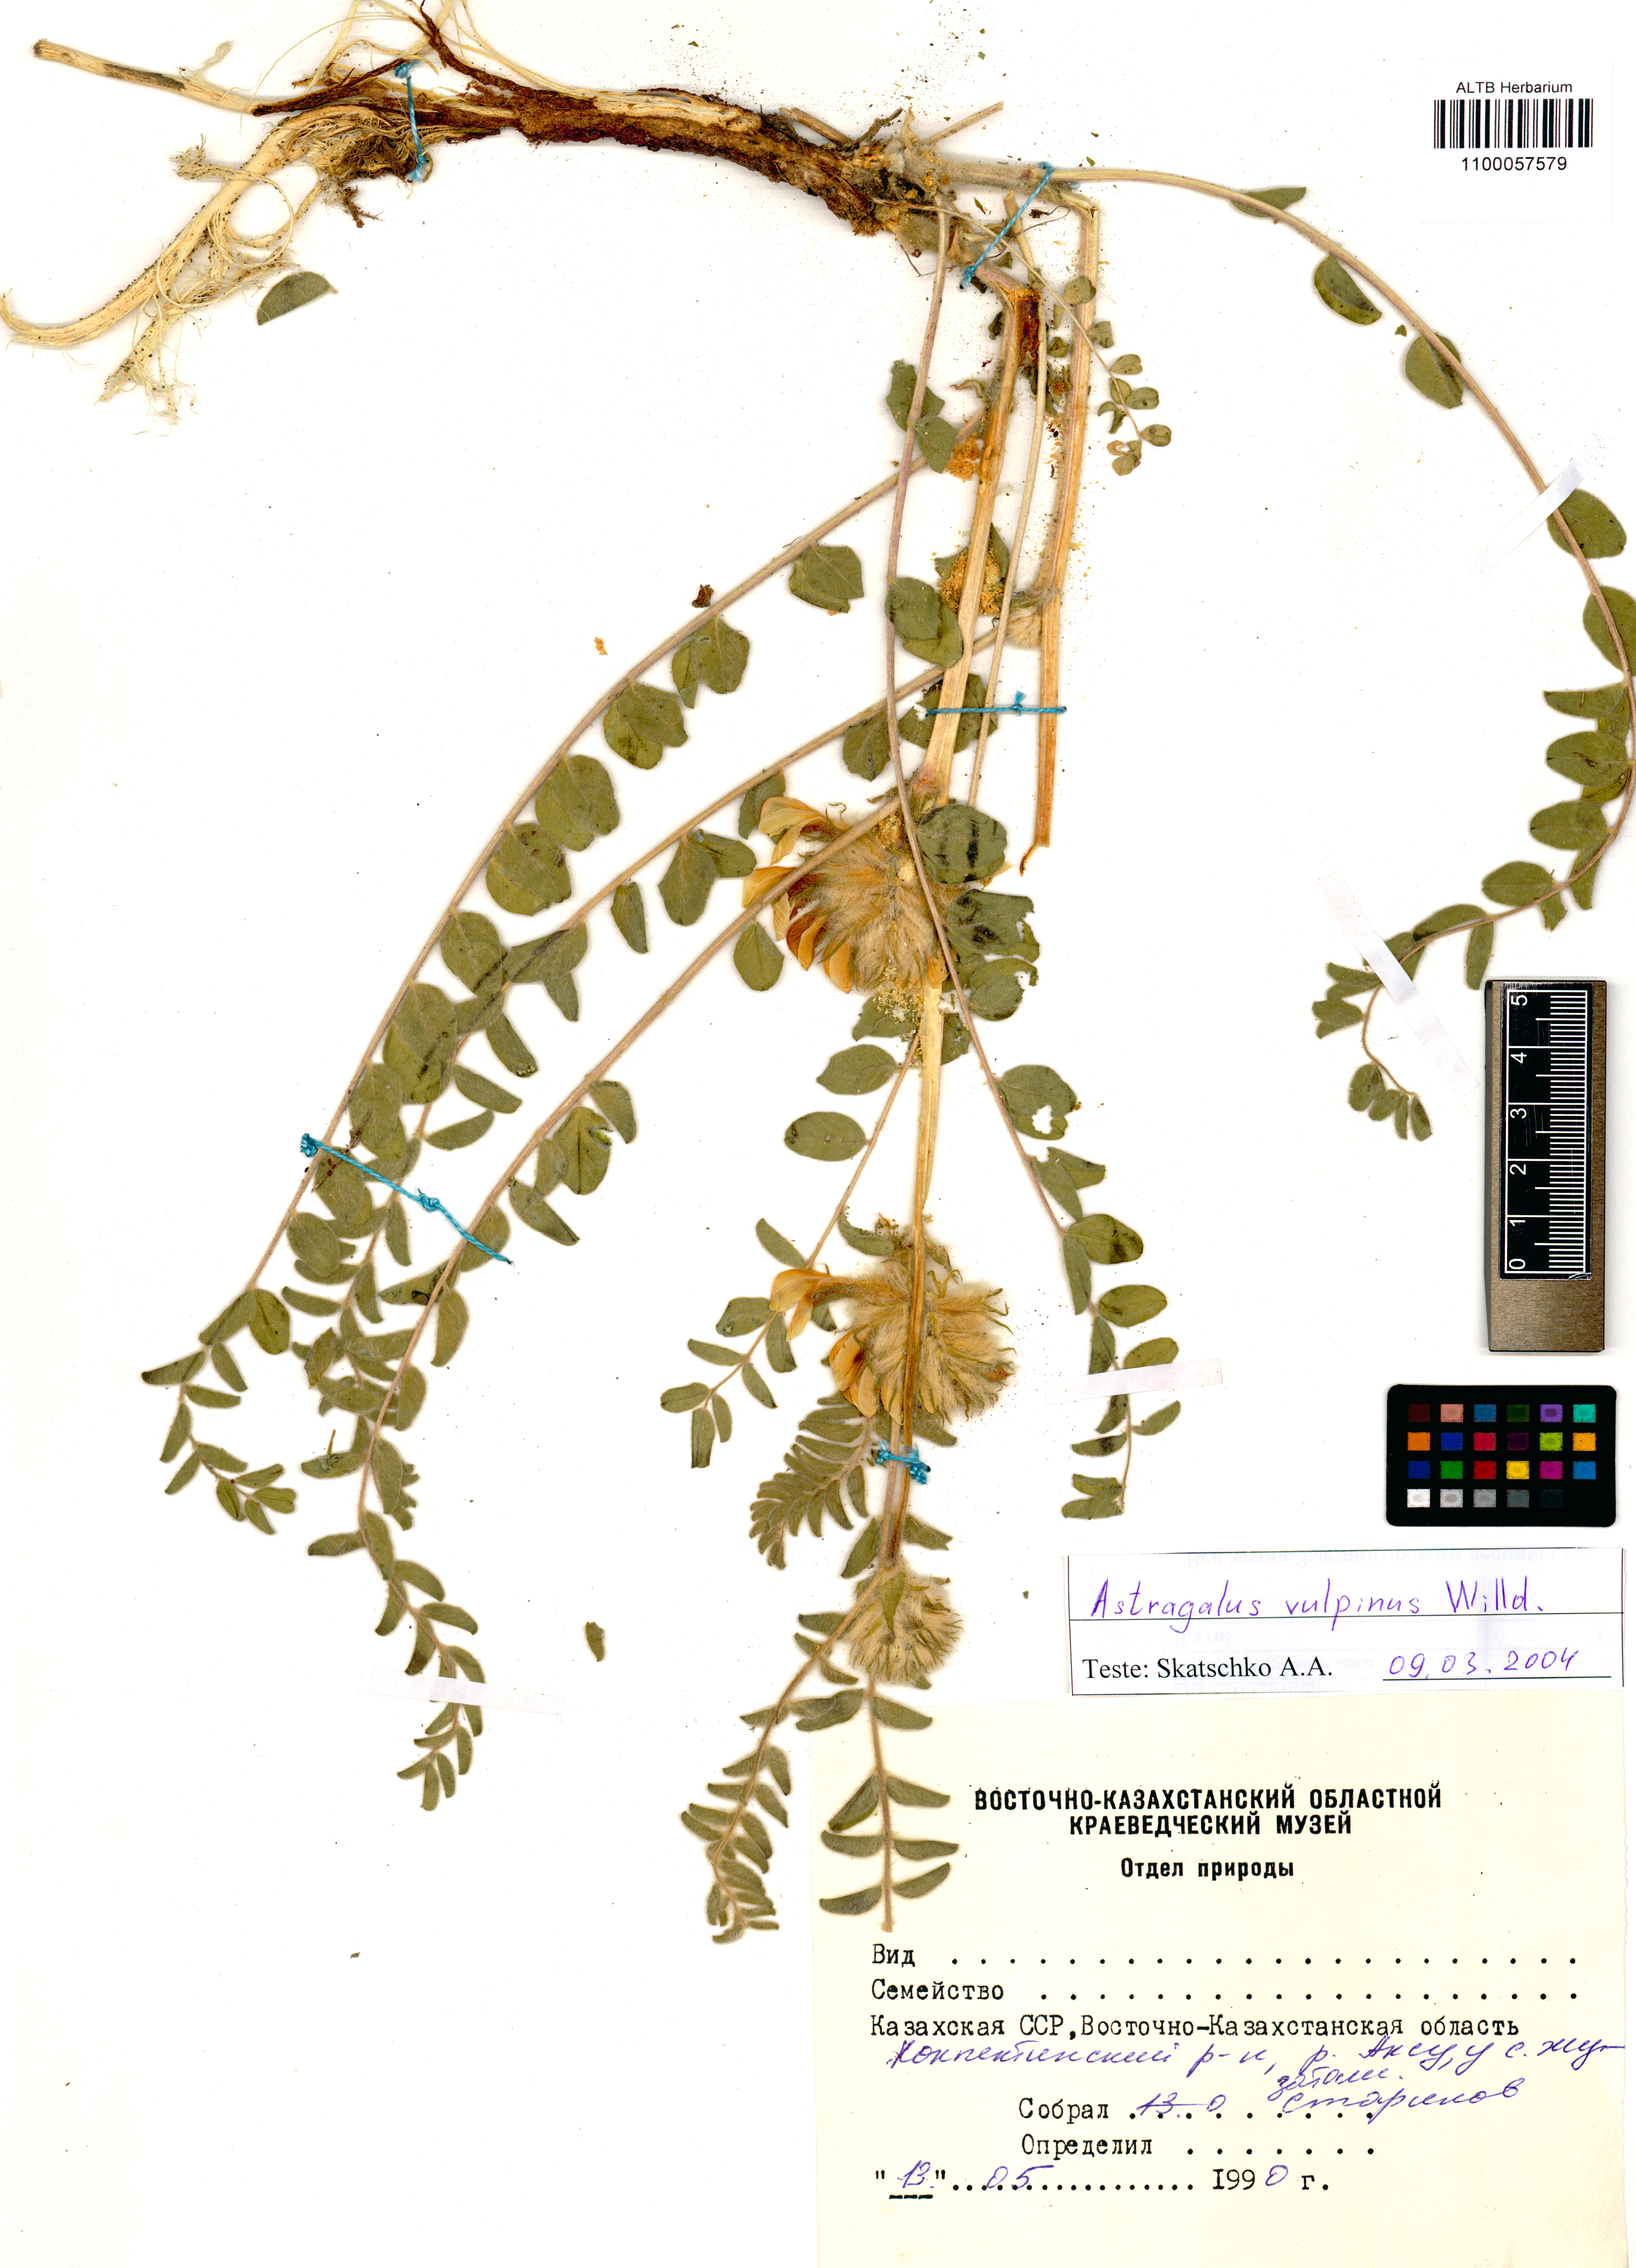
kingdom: Plantae
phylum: Tracheophyta
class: Magnoliopsida
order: Fabales
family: Fabaceae
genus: Astragalus
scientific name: Astragalus vulpinus
